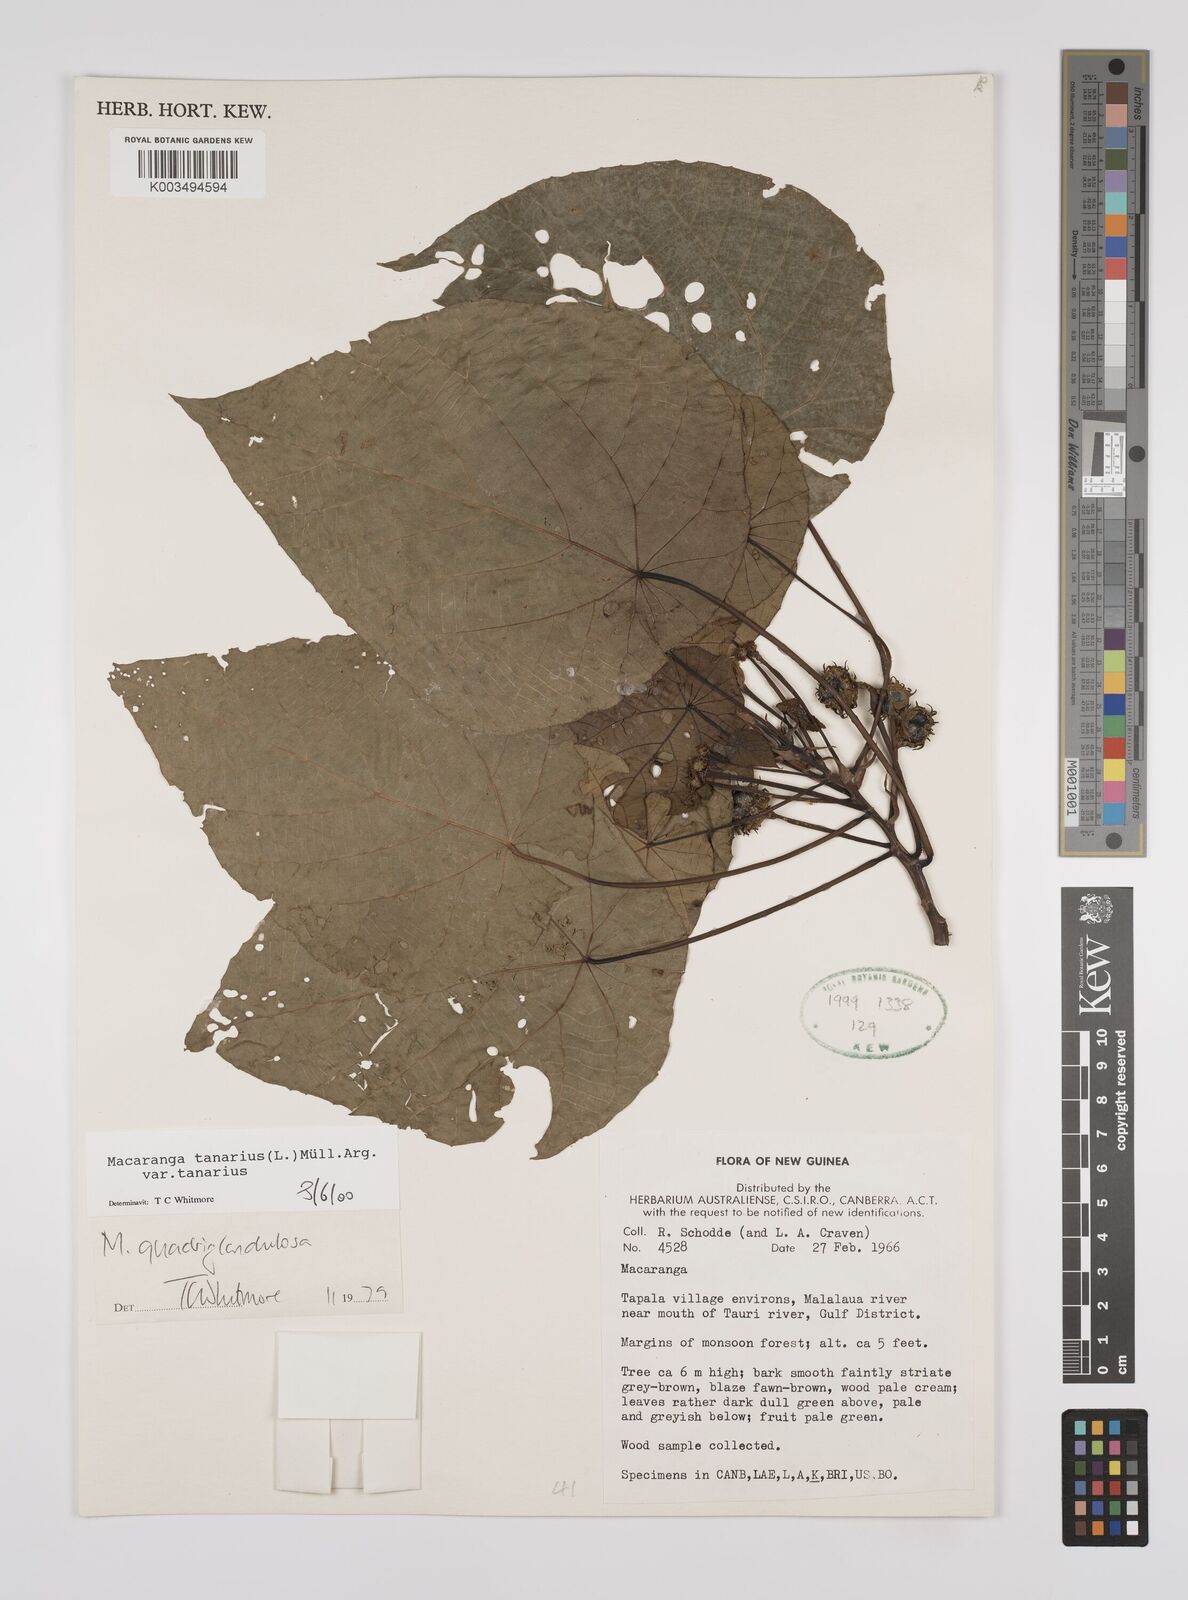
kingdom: Plantae
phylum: Tracheophyta
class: Magnoliopsida
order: Malpighiales
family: Euphorbiaceae
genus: Macaranga
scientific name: Macaranga tanarius
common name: Parasol leaf tree
